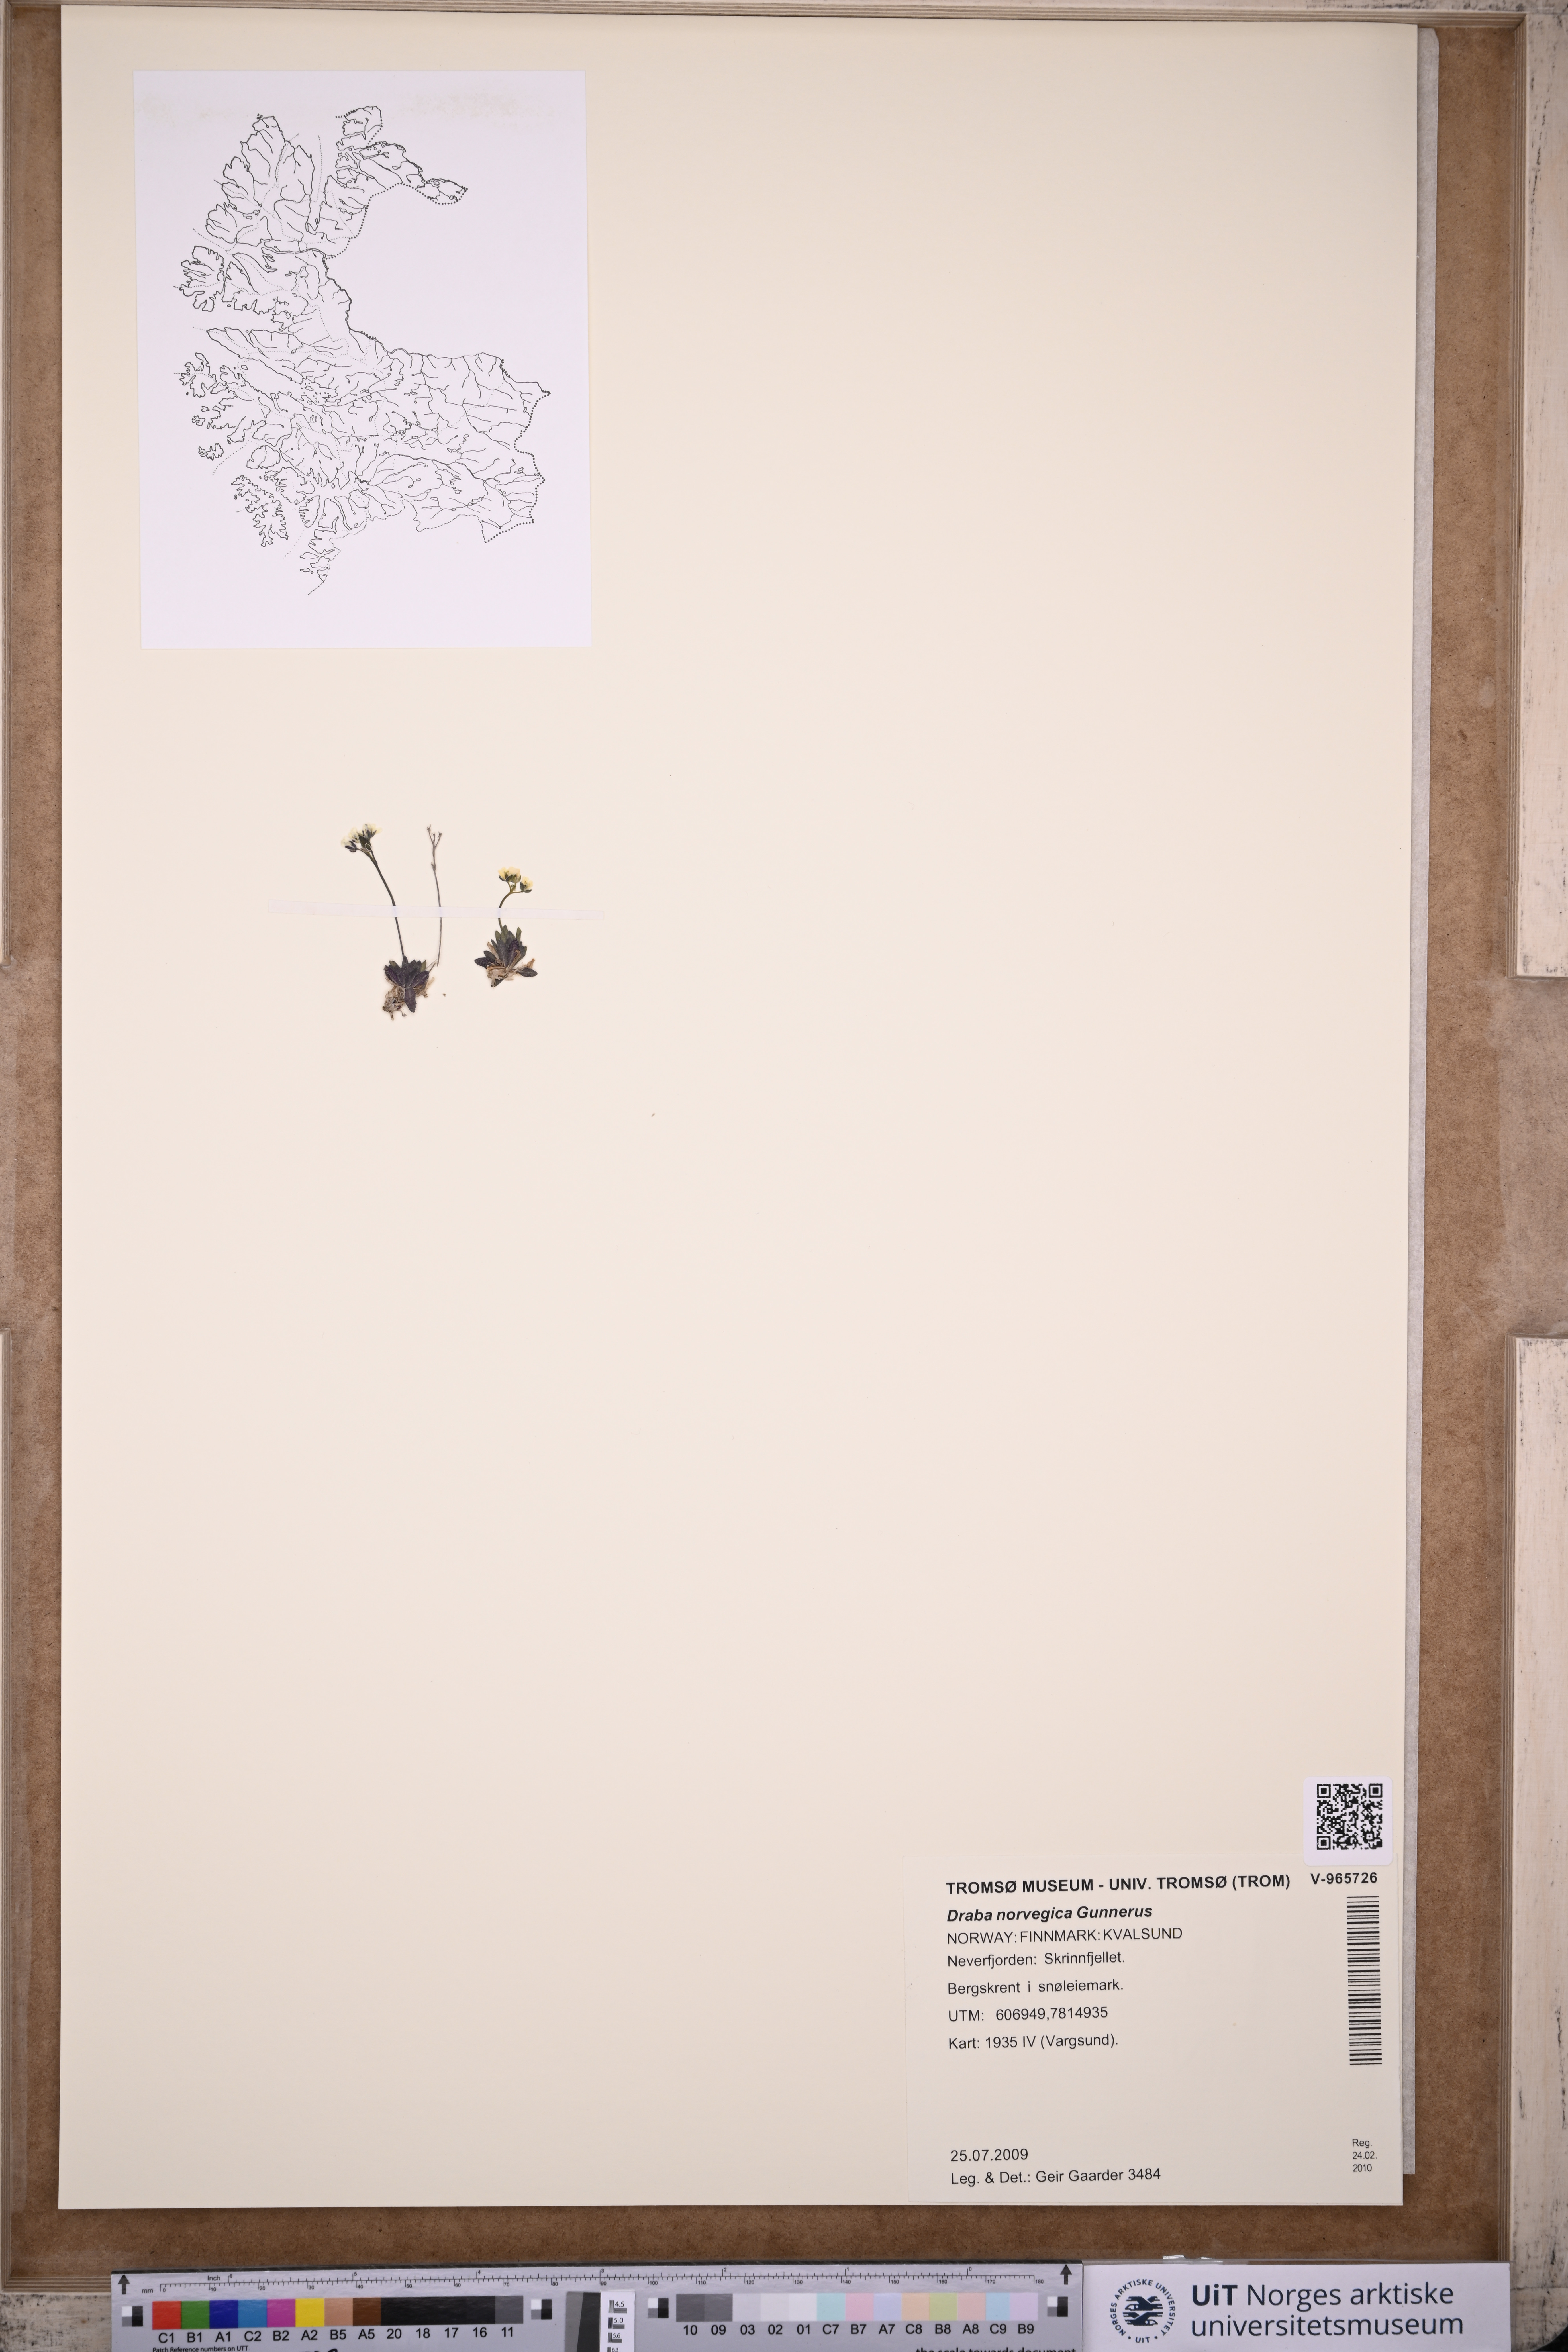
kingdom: Plantae
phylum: Tracheophyta
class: Magnoliopsida
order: Brassicales
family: Brassicaceae
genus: Draba
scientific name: Draba norvegica
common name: Rock whitlowgrass
